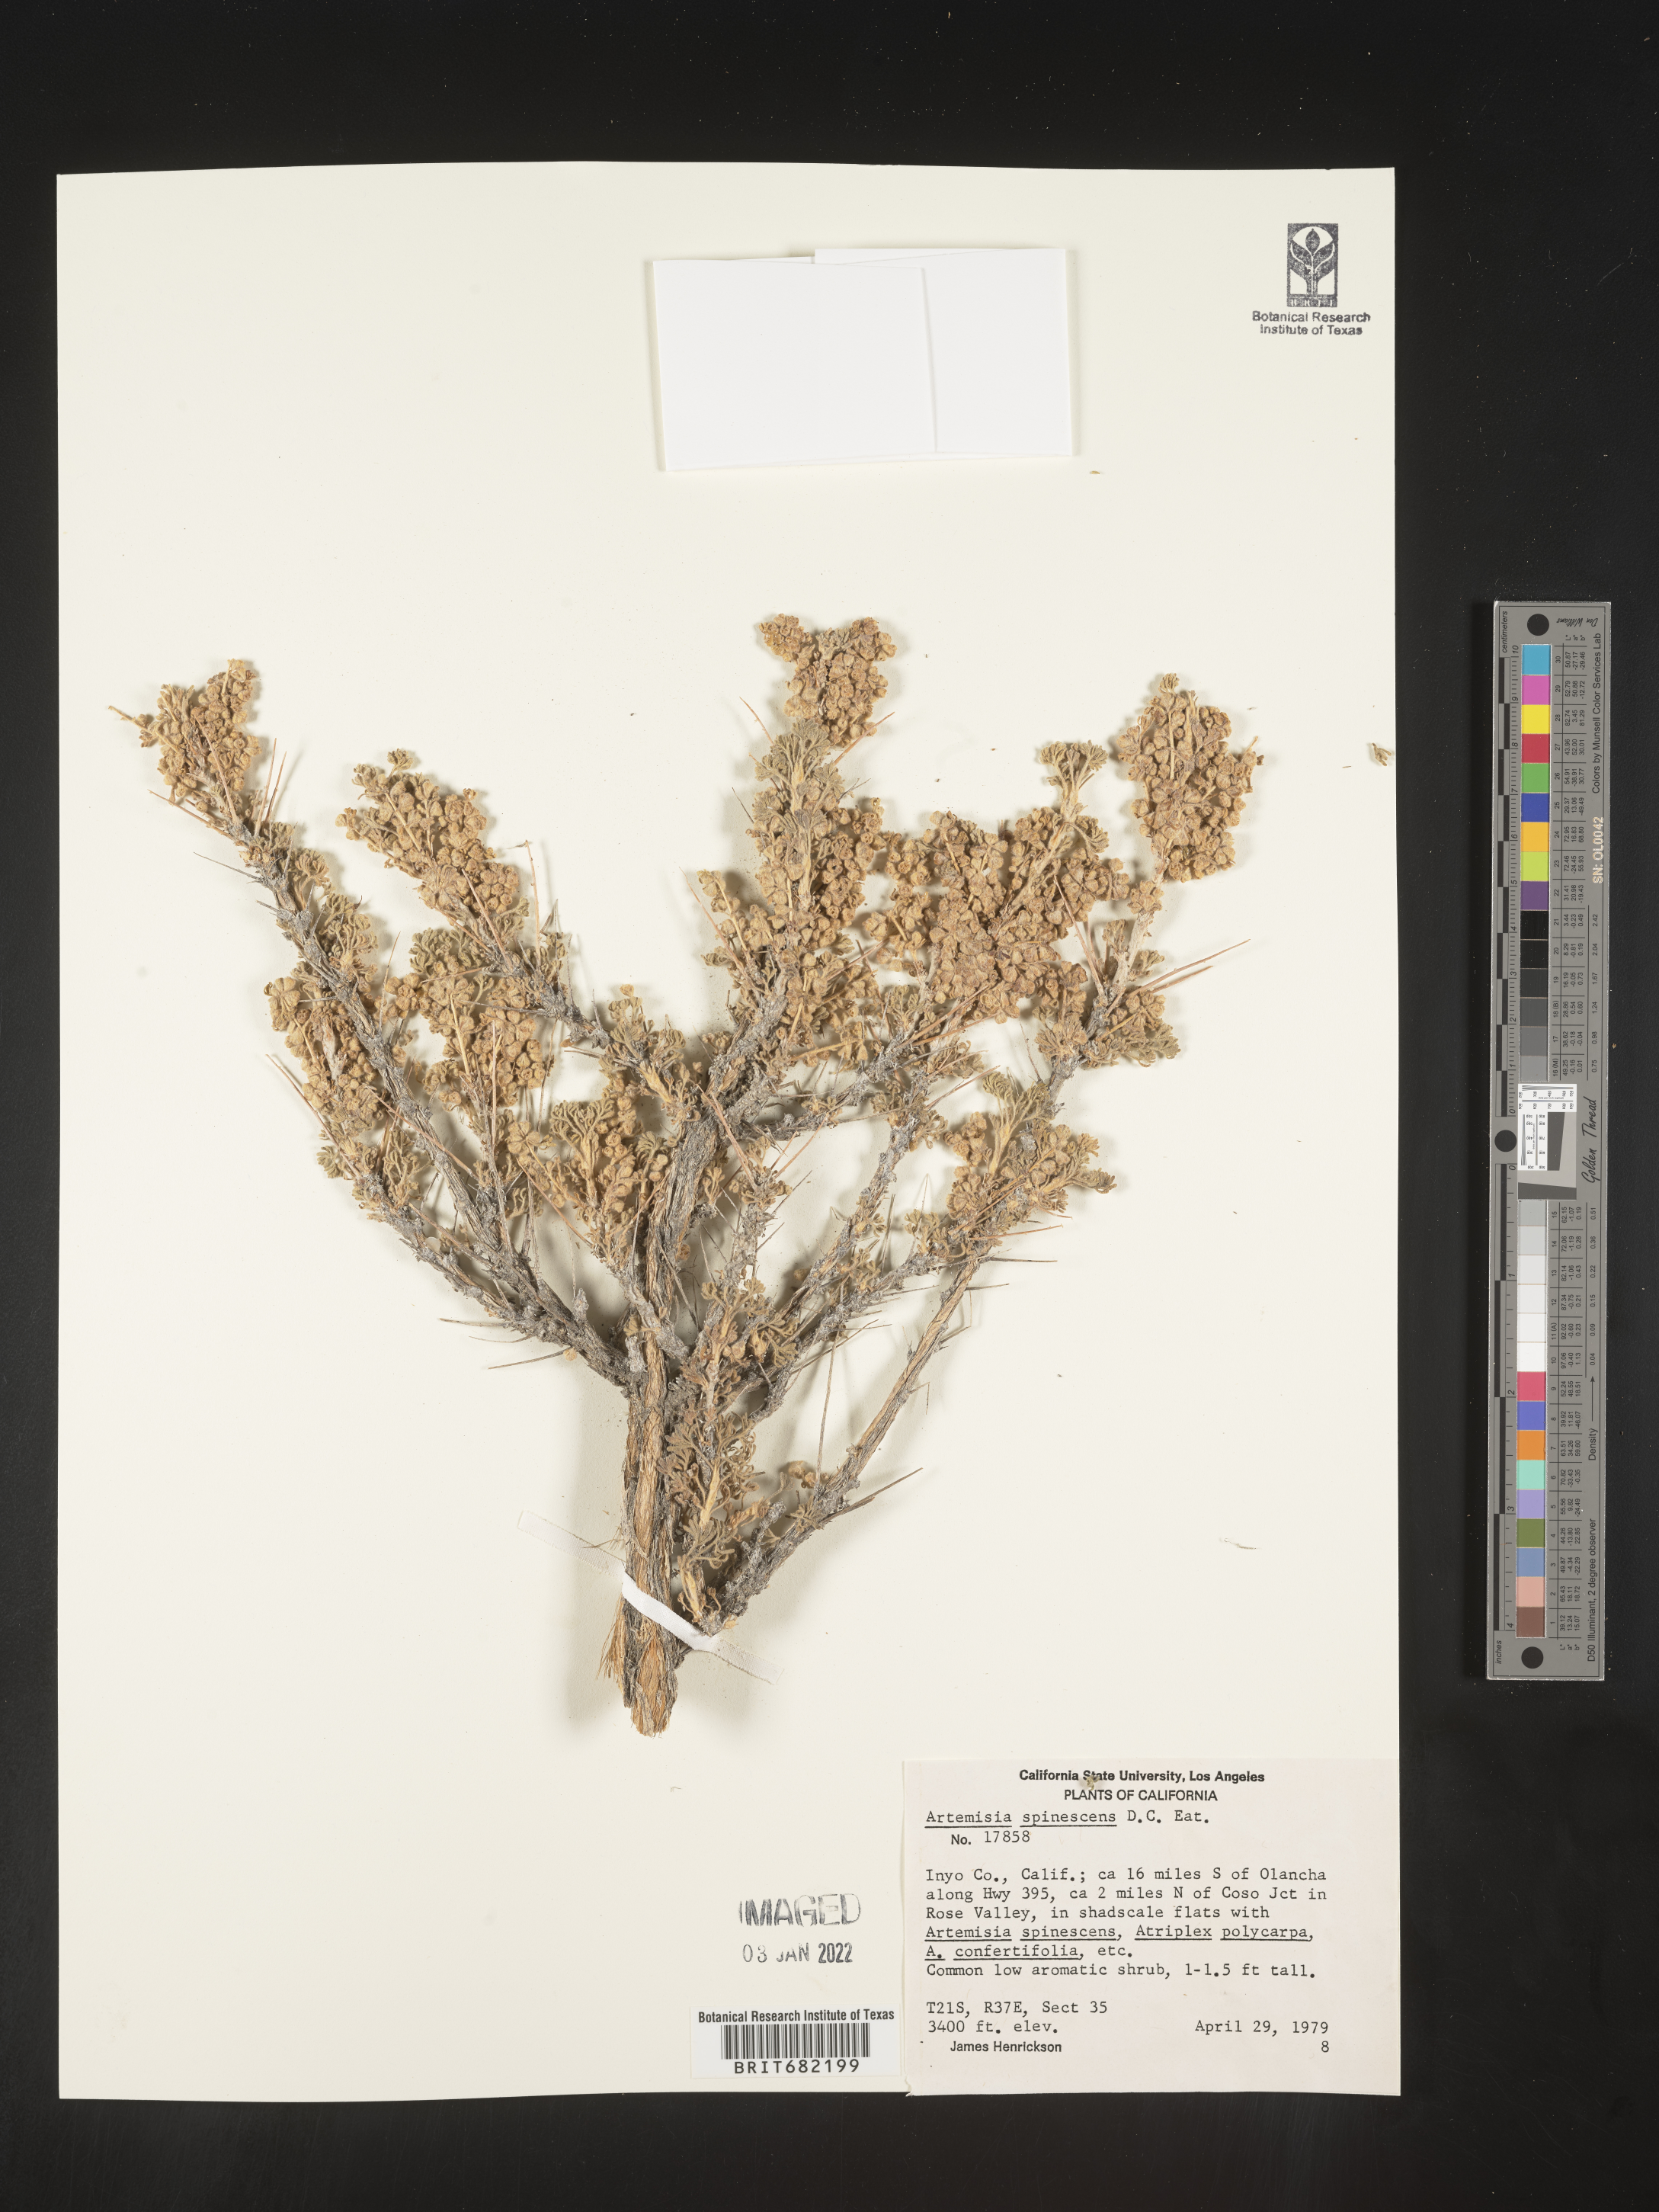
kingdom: Plantae
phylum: Tracheophyta
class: Magnoliopsida
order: Asterales
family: Asteraceae
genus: Artemisia
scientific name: Artemisia spinescens
